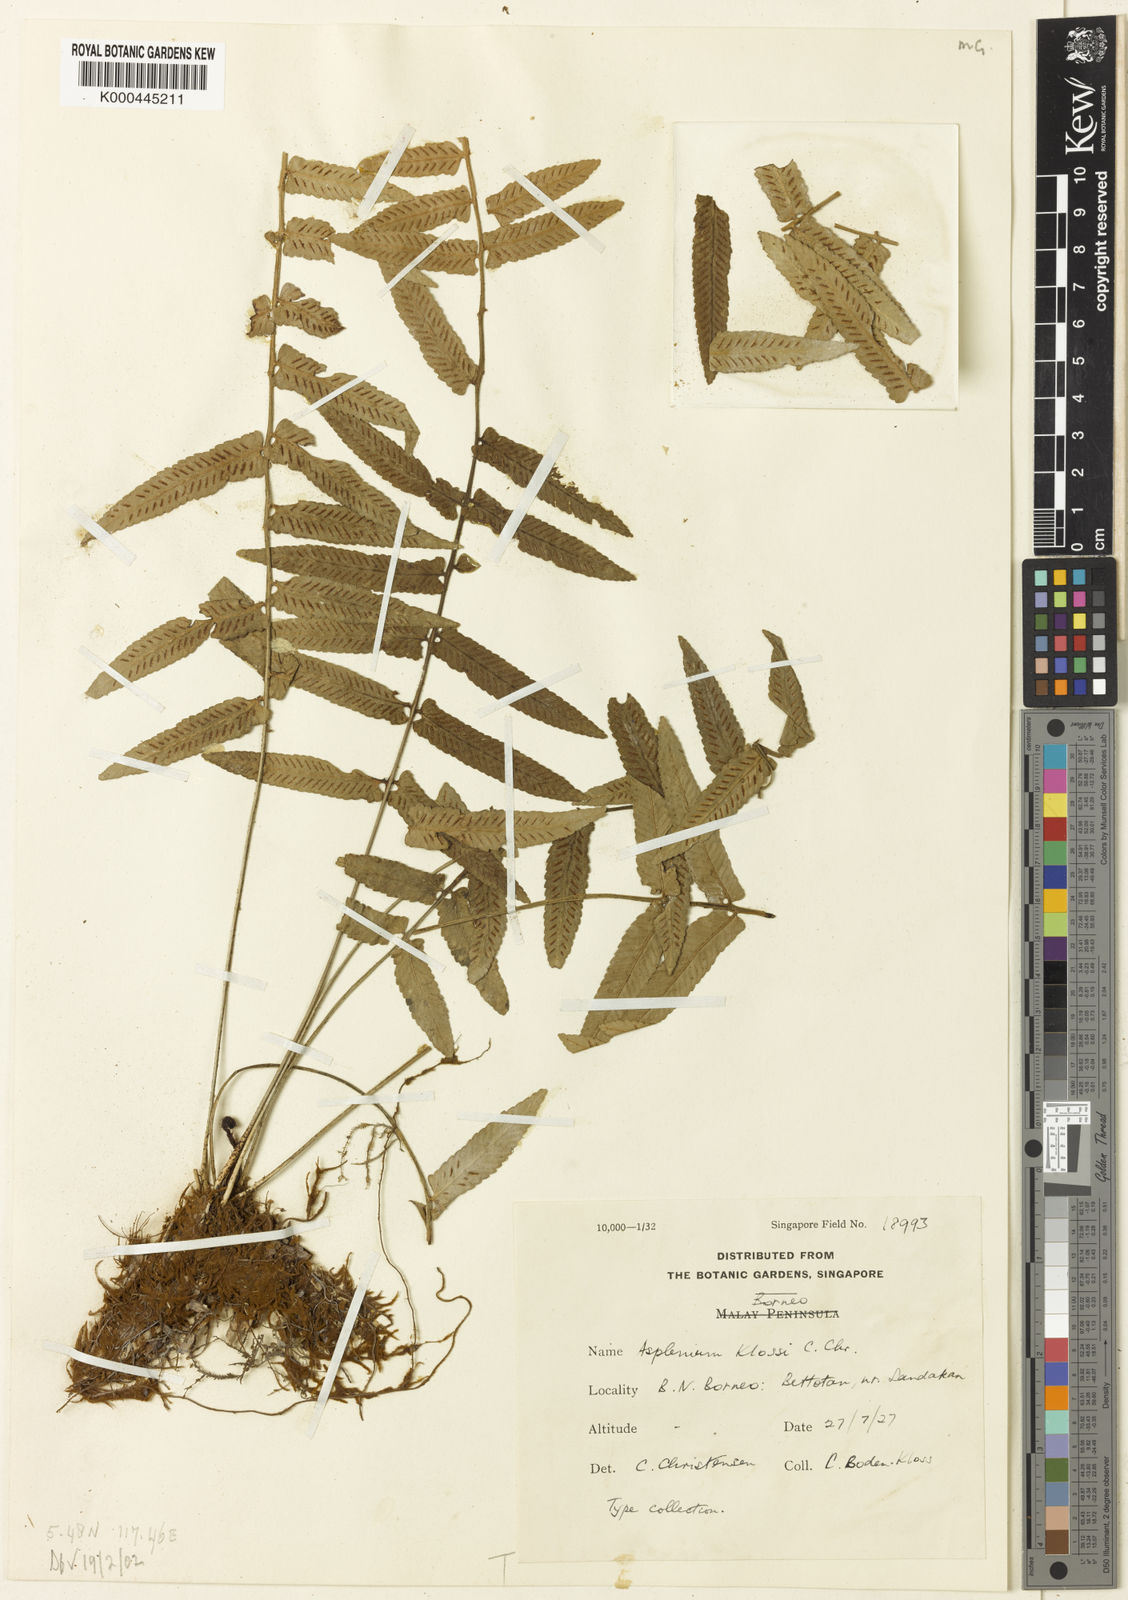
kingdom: Plantae
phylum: Tracheophyta
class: Polypodiopsida
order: Polypodiales
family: Aspleniaceae
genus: Asplenium
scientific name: Asplenium klossii
